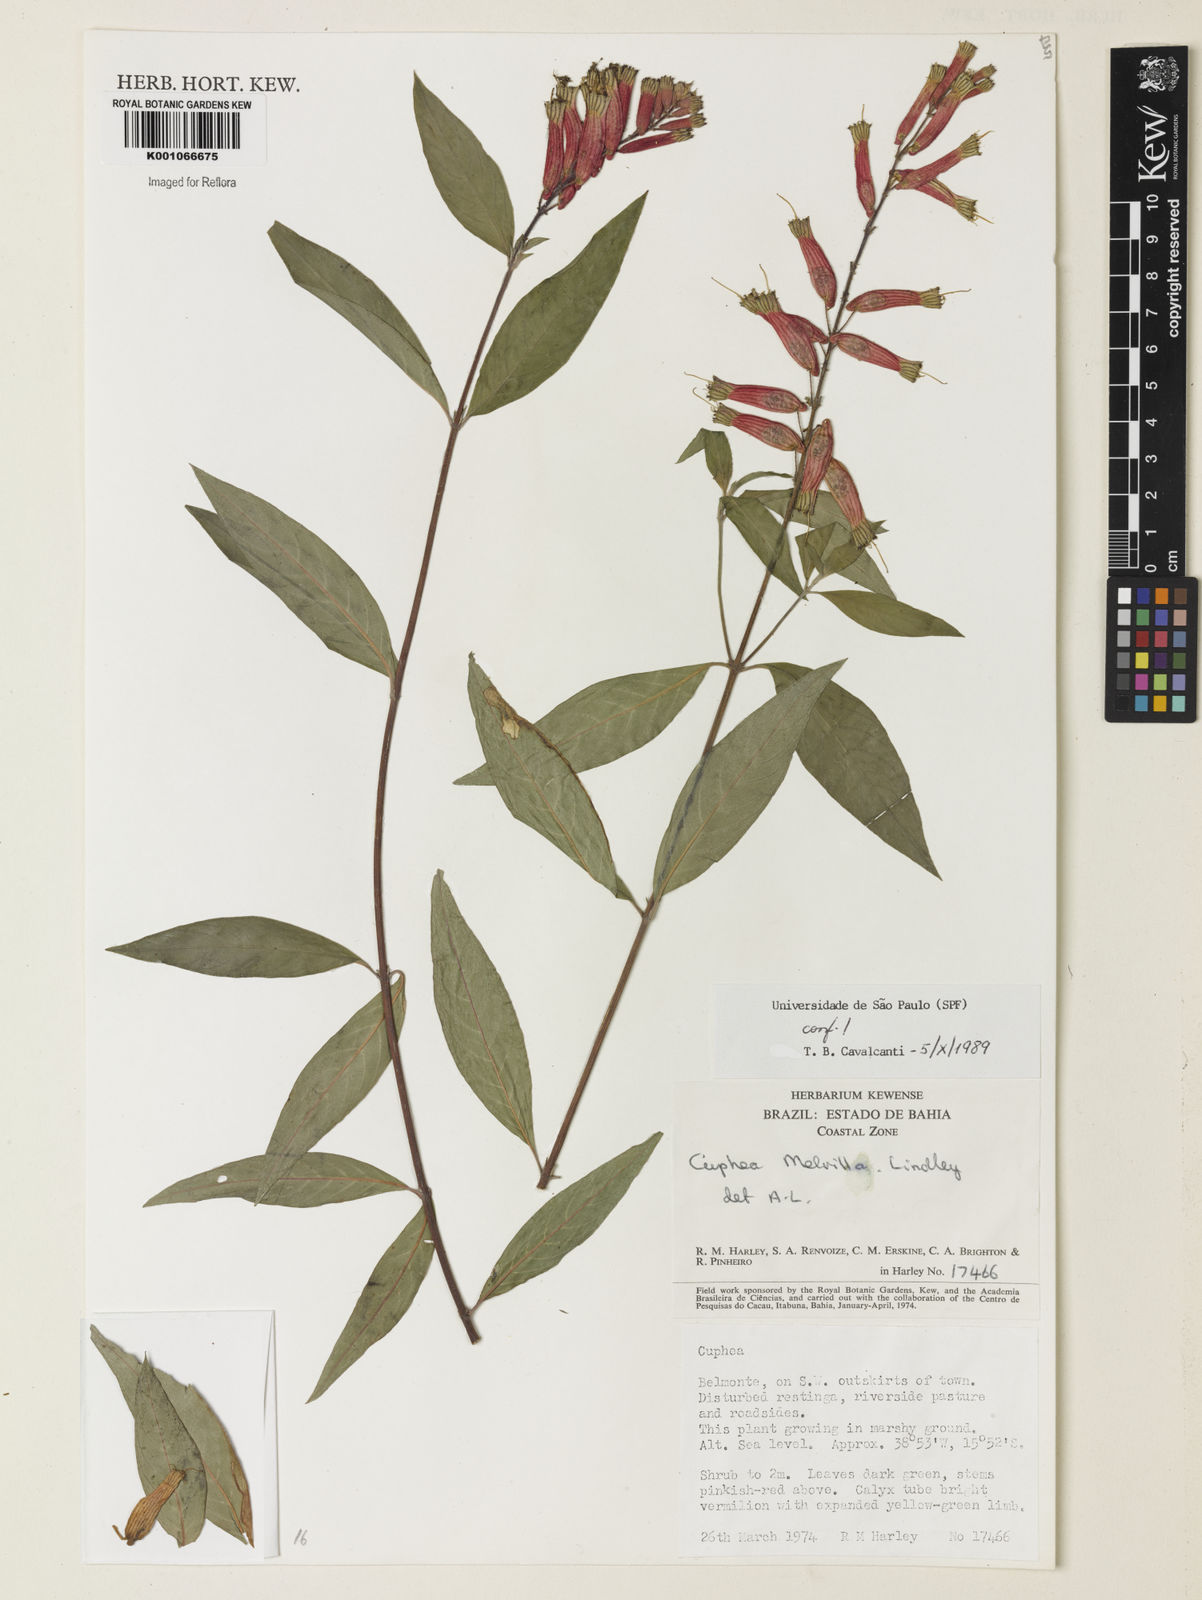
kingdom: Plantae
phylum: Tracheophyta
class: Magnoliopsida
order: Myrtales
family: Lythraceae
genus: Cuphea
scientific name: Cuphea melvilla
